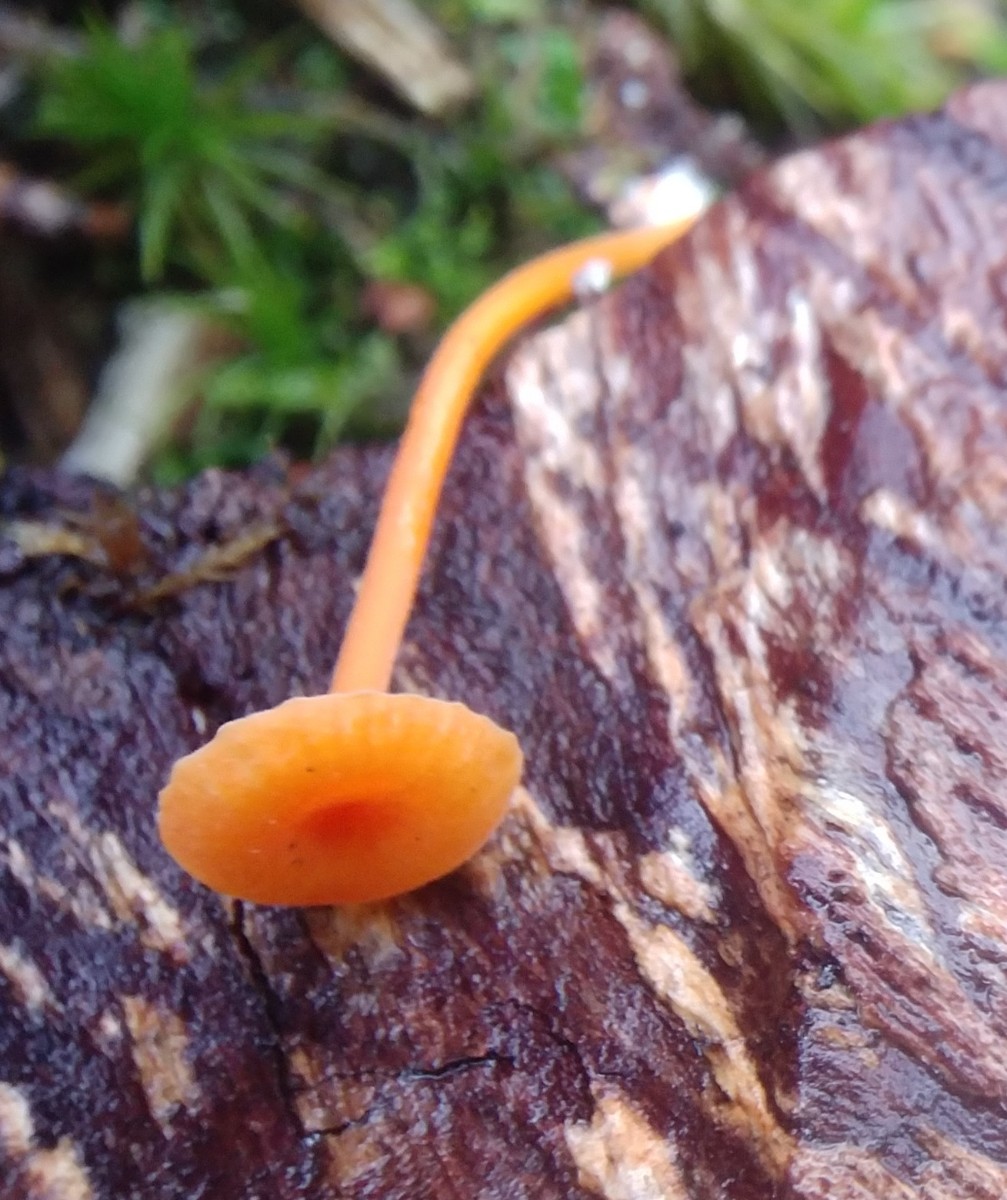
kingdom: Fungi
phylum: Basidiomycota
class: Agaricomycetes
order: Hymenochaetales
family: Rickenellaceae
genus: Rickenella
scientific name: Rickenella fibula
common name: orange mosnavlehat
